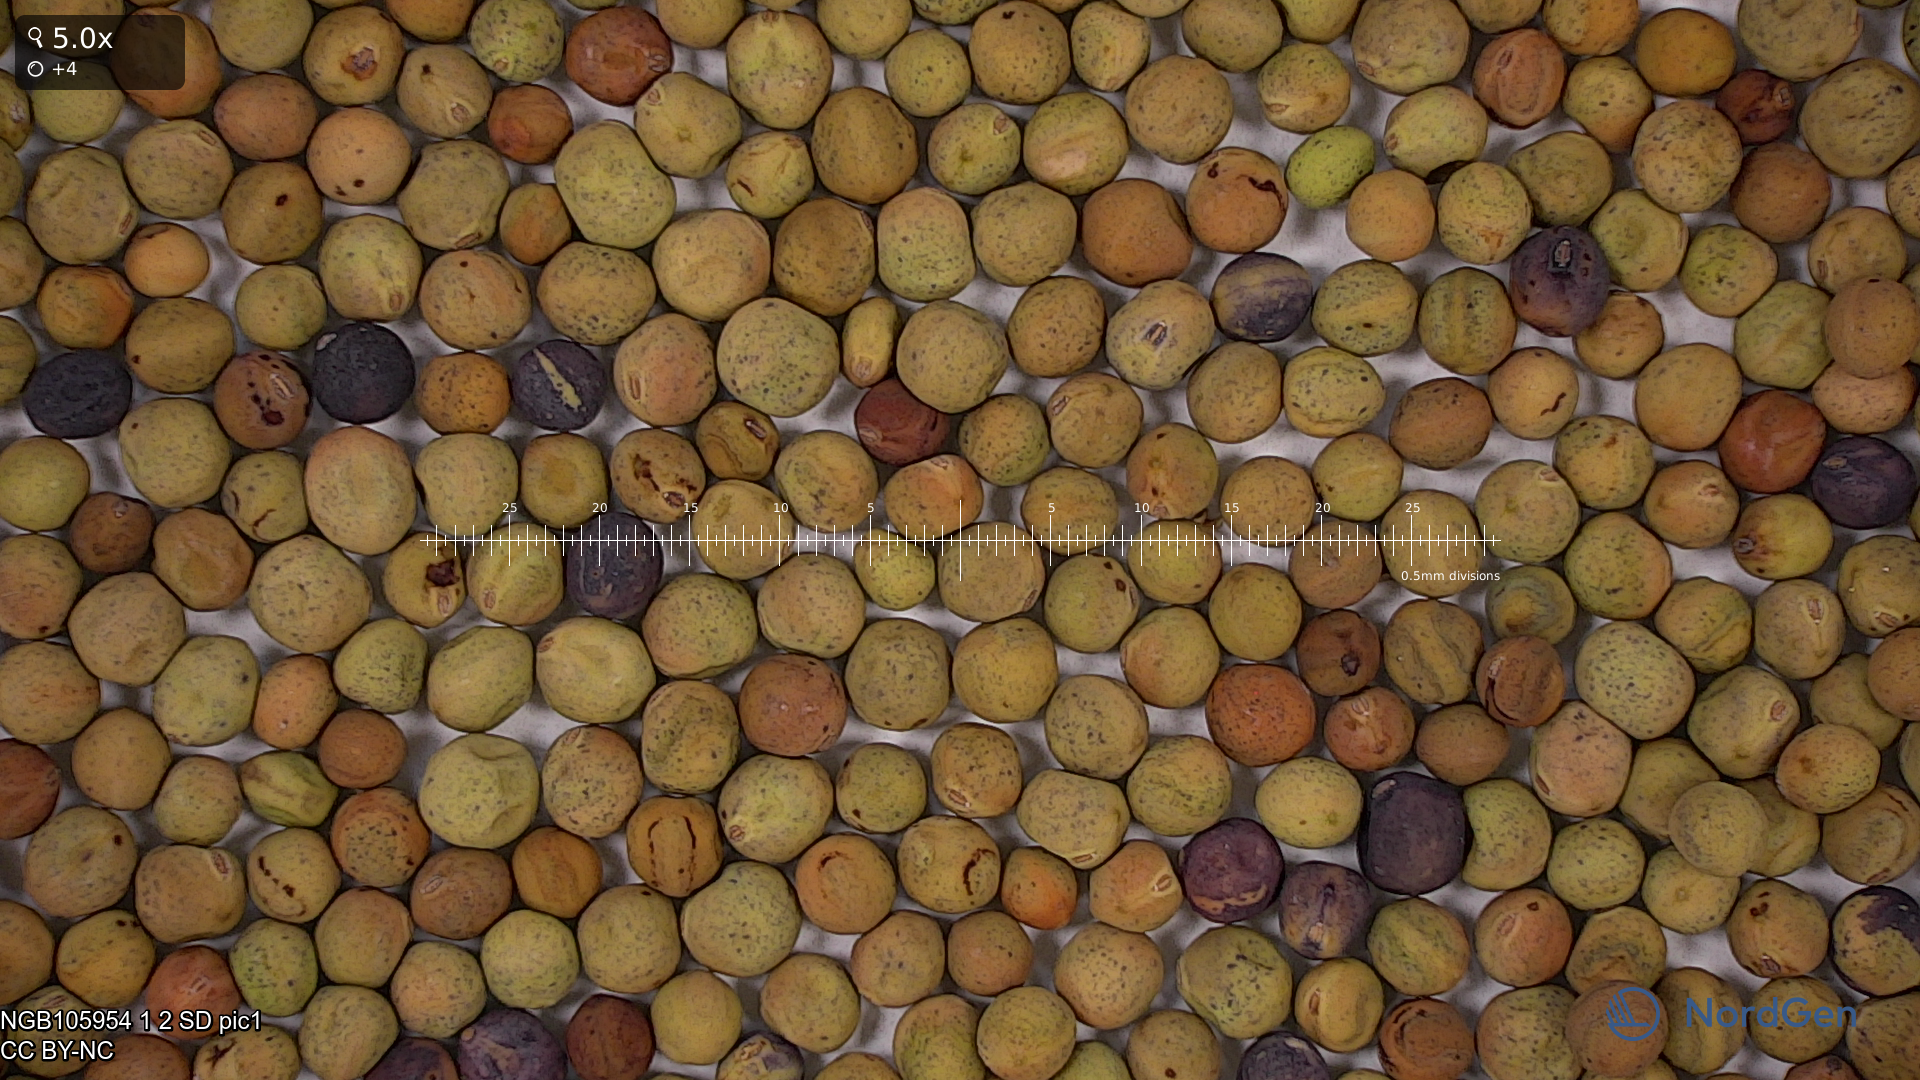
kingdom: Plantae
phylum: Tracheophyta
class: Magnoliopsida
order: Fabales
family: Fabaceae
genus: Lathyrus
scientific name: Lathyrus oleraceus
